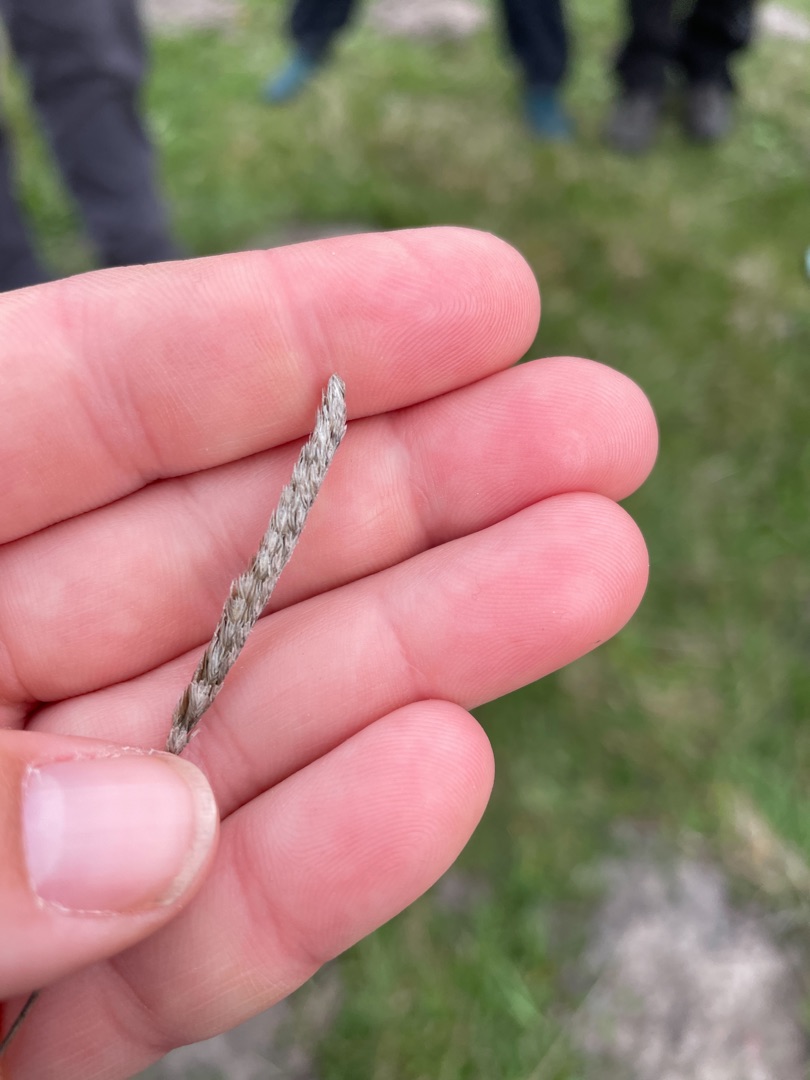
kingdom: Plantae
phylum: Tracheophyta
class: Liliopsida
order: Poales
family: Poaceae
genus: Cynosurus
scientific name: Cynosurus cristatus
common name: Kamgræs
